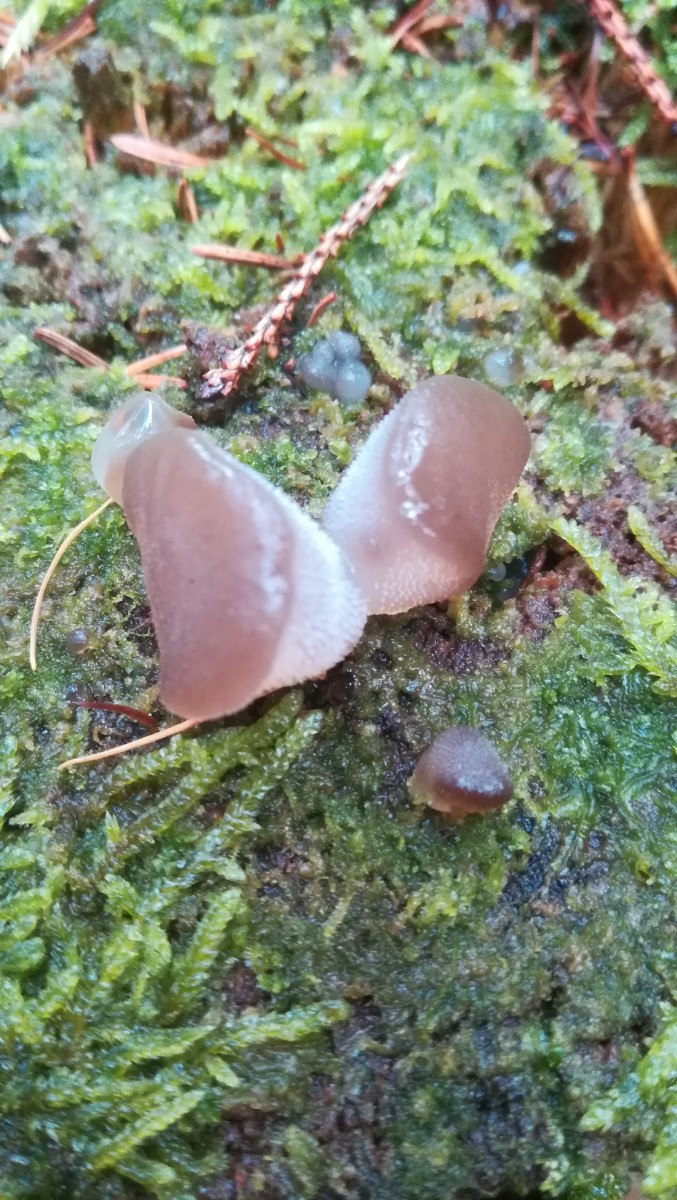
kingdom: Fungi
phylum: Basidiomycota
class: Agaricomycetes
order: Auriculariales
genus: Pseudohydnum
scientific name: Pseudohydnum gelatinosum
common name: bævretand
